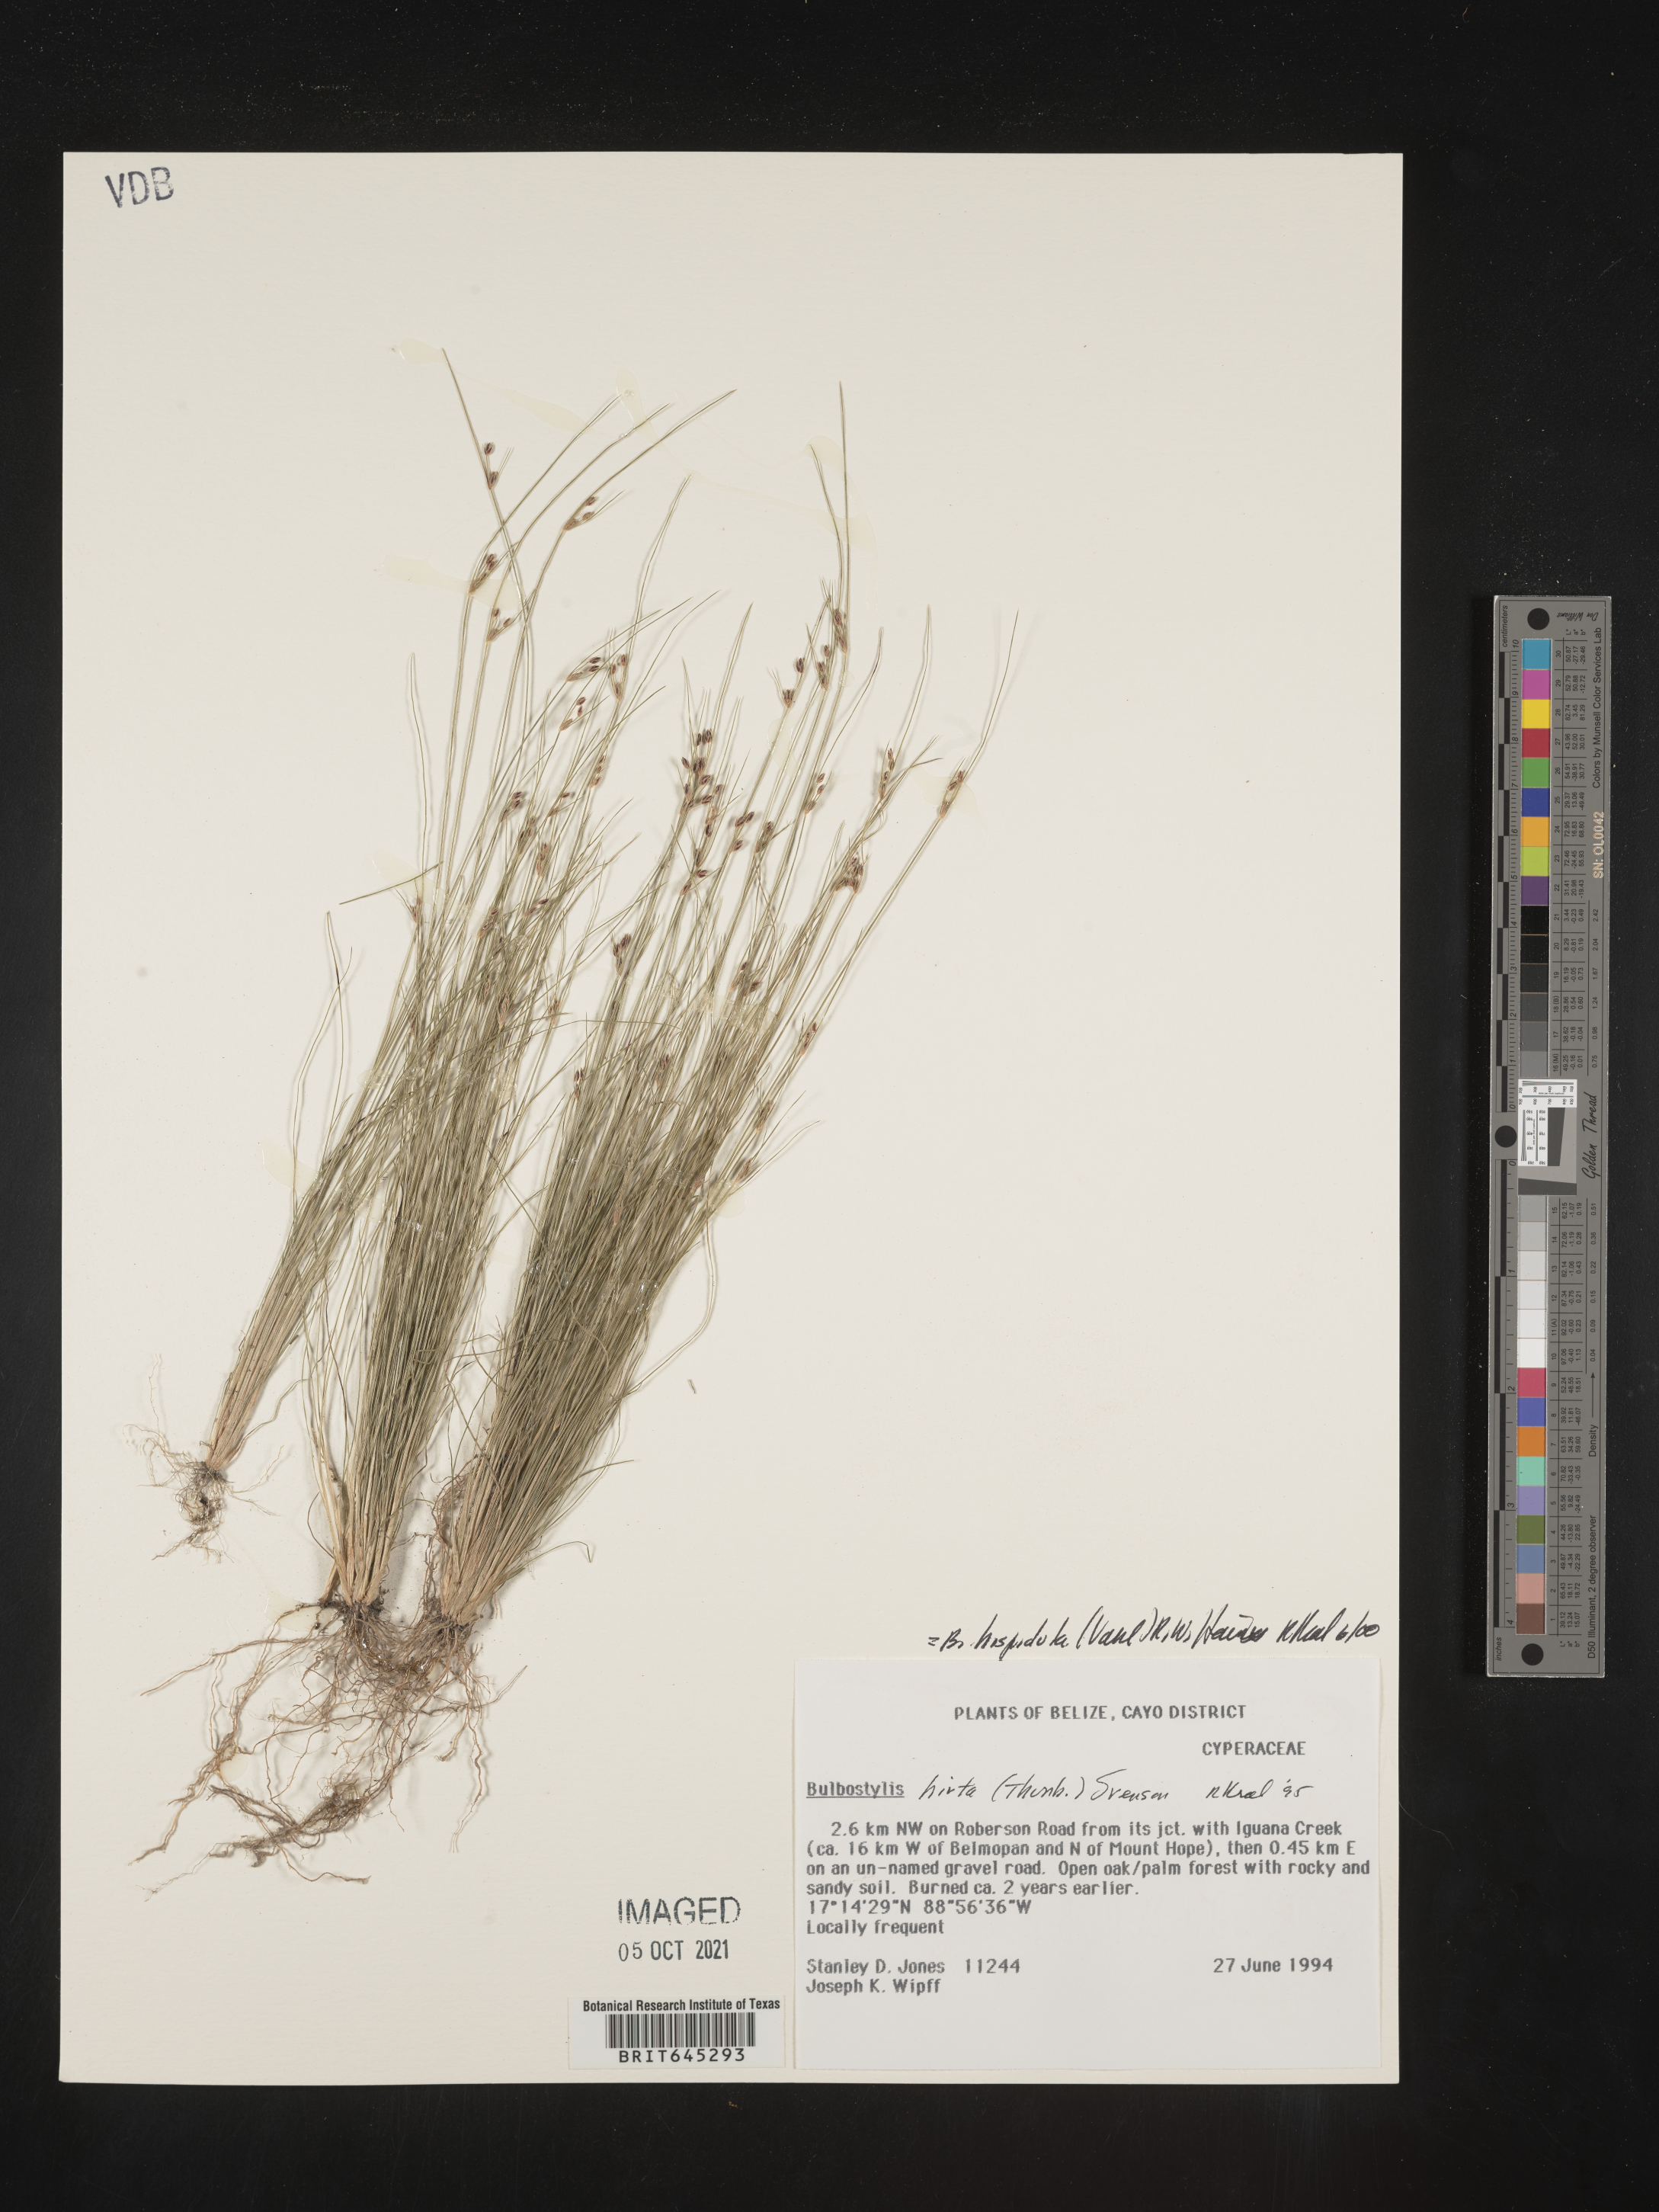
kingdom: Plantae
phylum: Tracheophyta
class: Liliopsida
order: Poales
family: Cyperaceae
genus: Bulbostylis
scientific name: Bulbostylis hispidula
